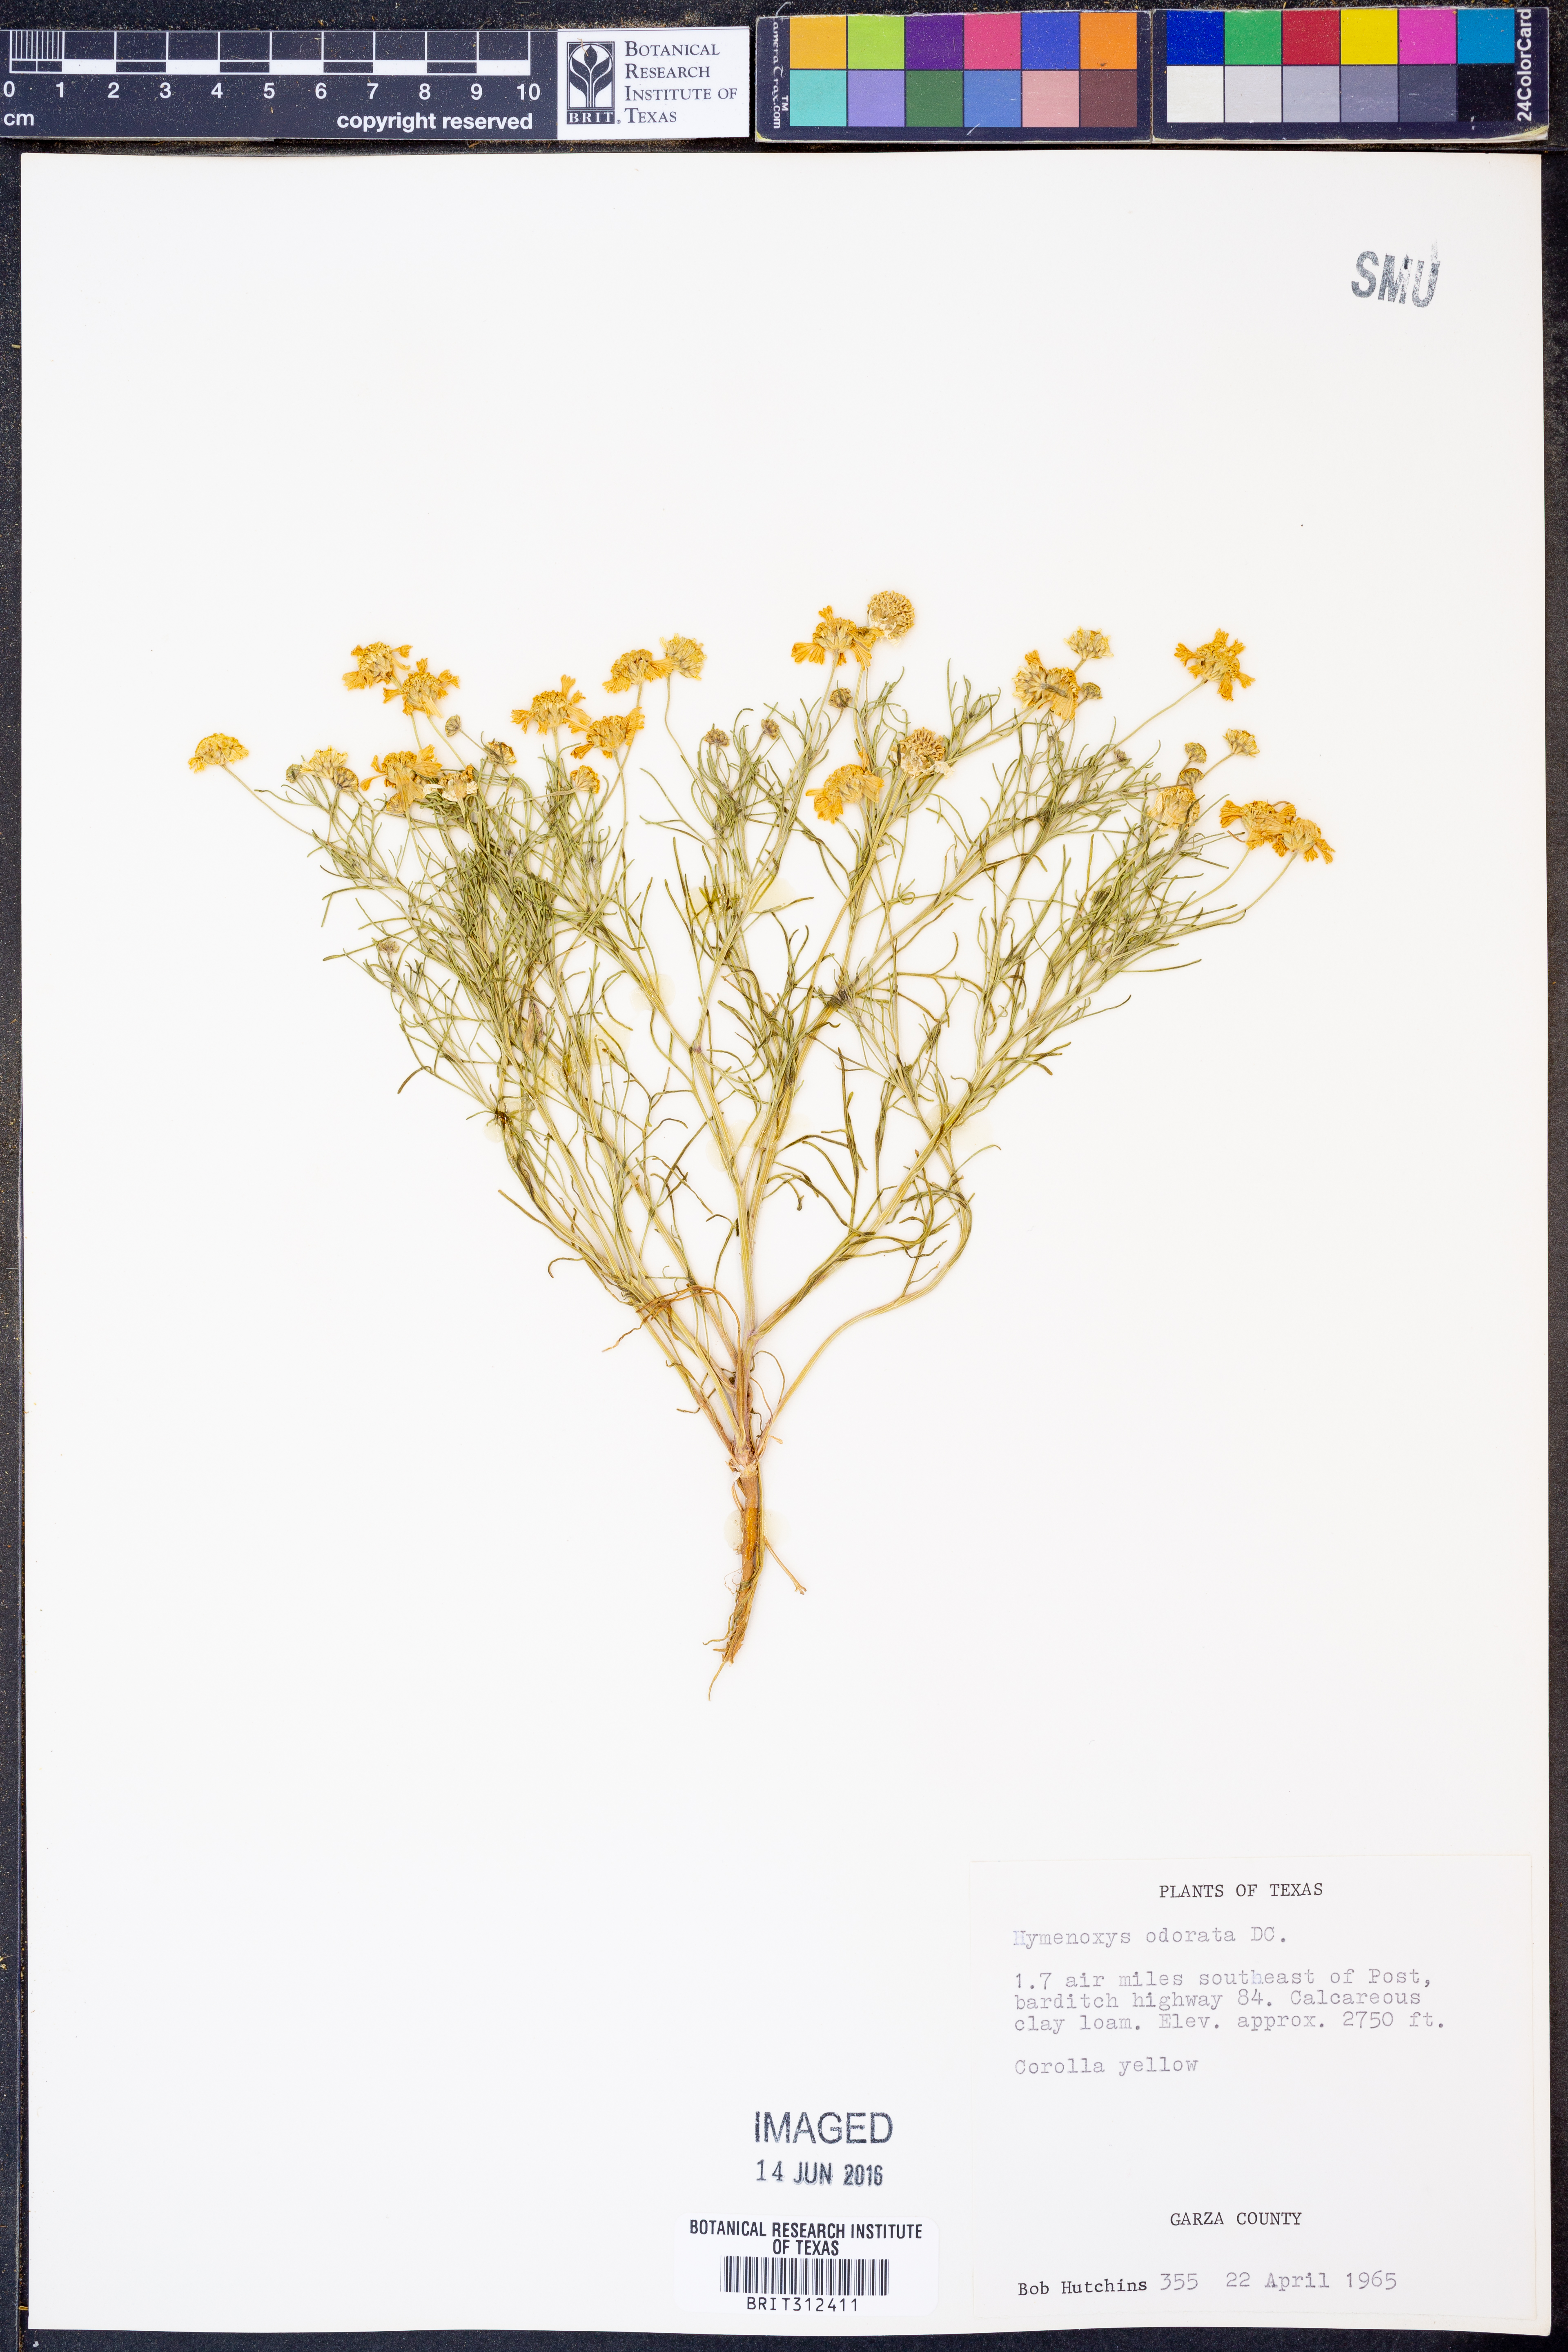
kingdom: Plantae
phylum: Tracheophyta
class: Magnoliopsida
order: Asterales
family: Asteraceae
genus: Hymenoxys
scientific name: Hymenoxys odorata
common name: Bitter rubberweed
